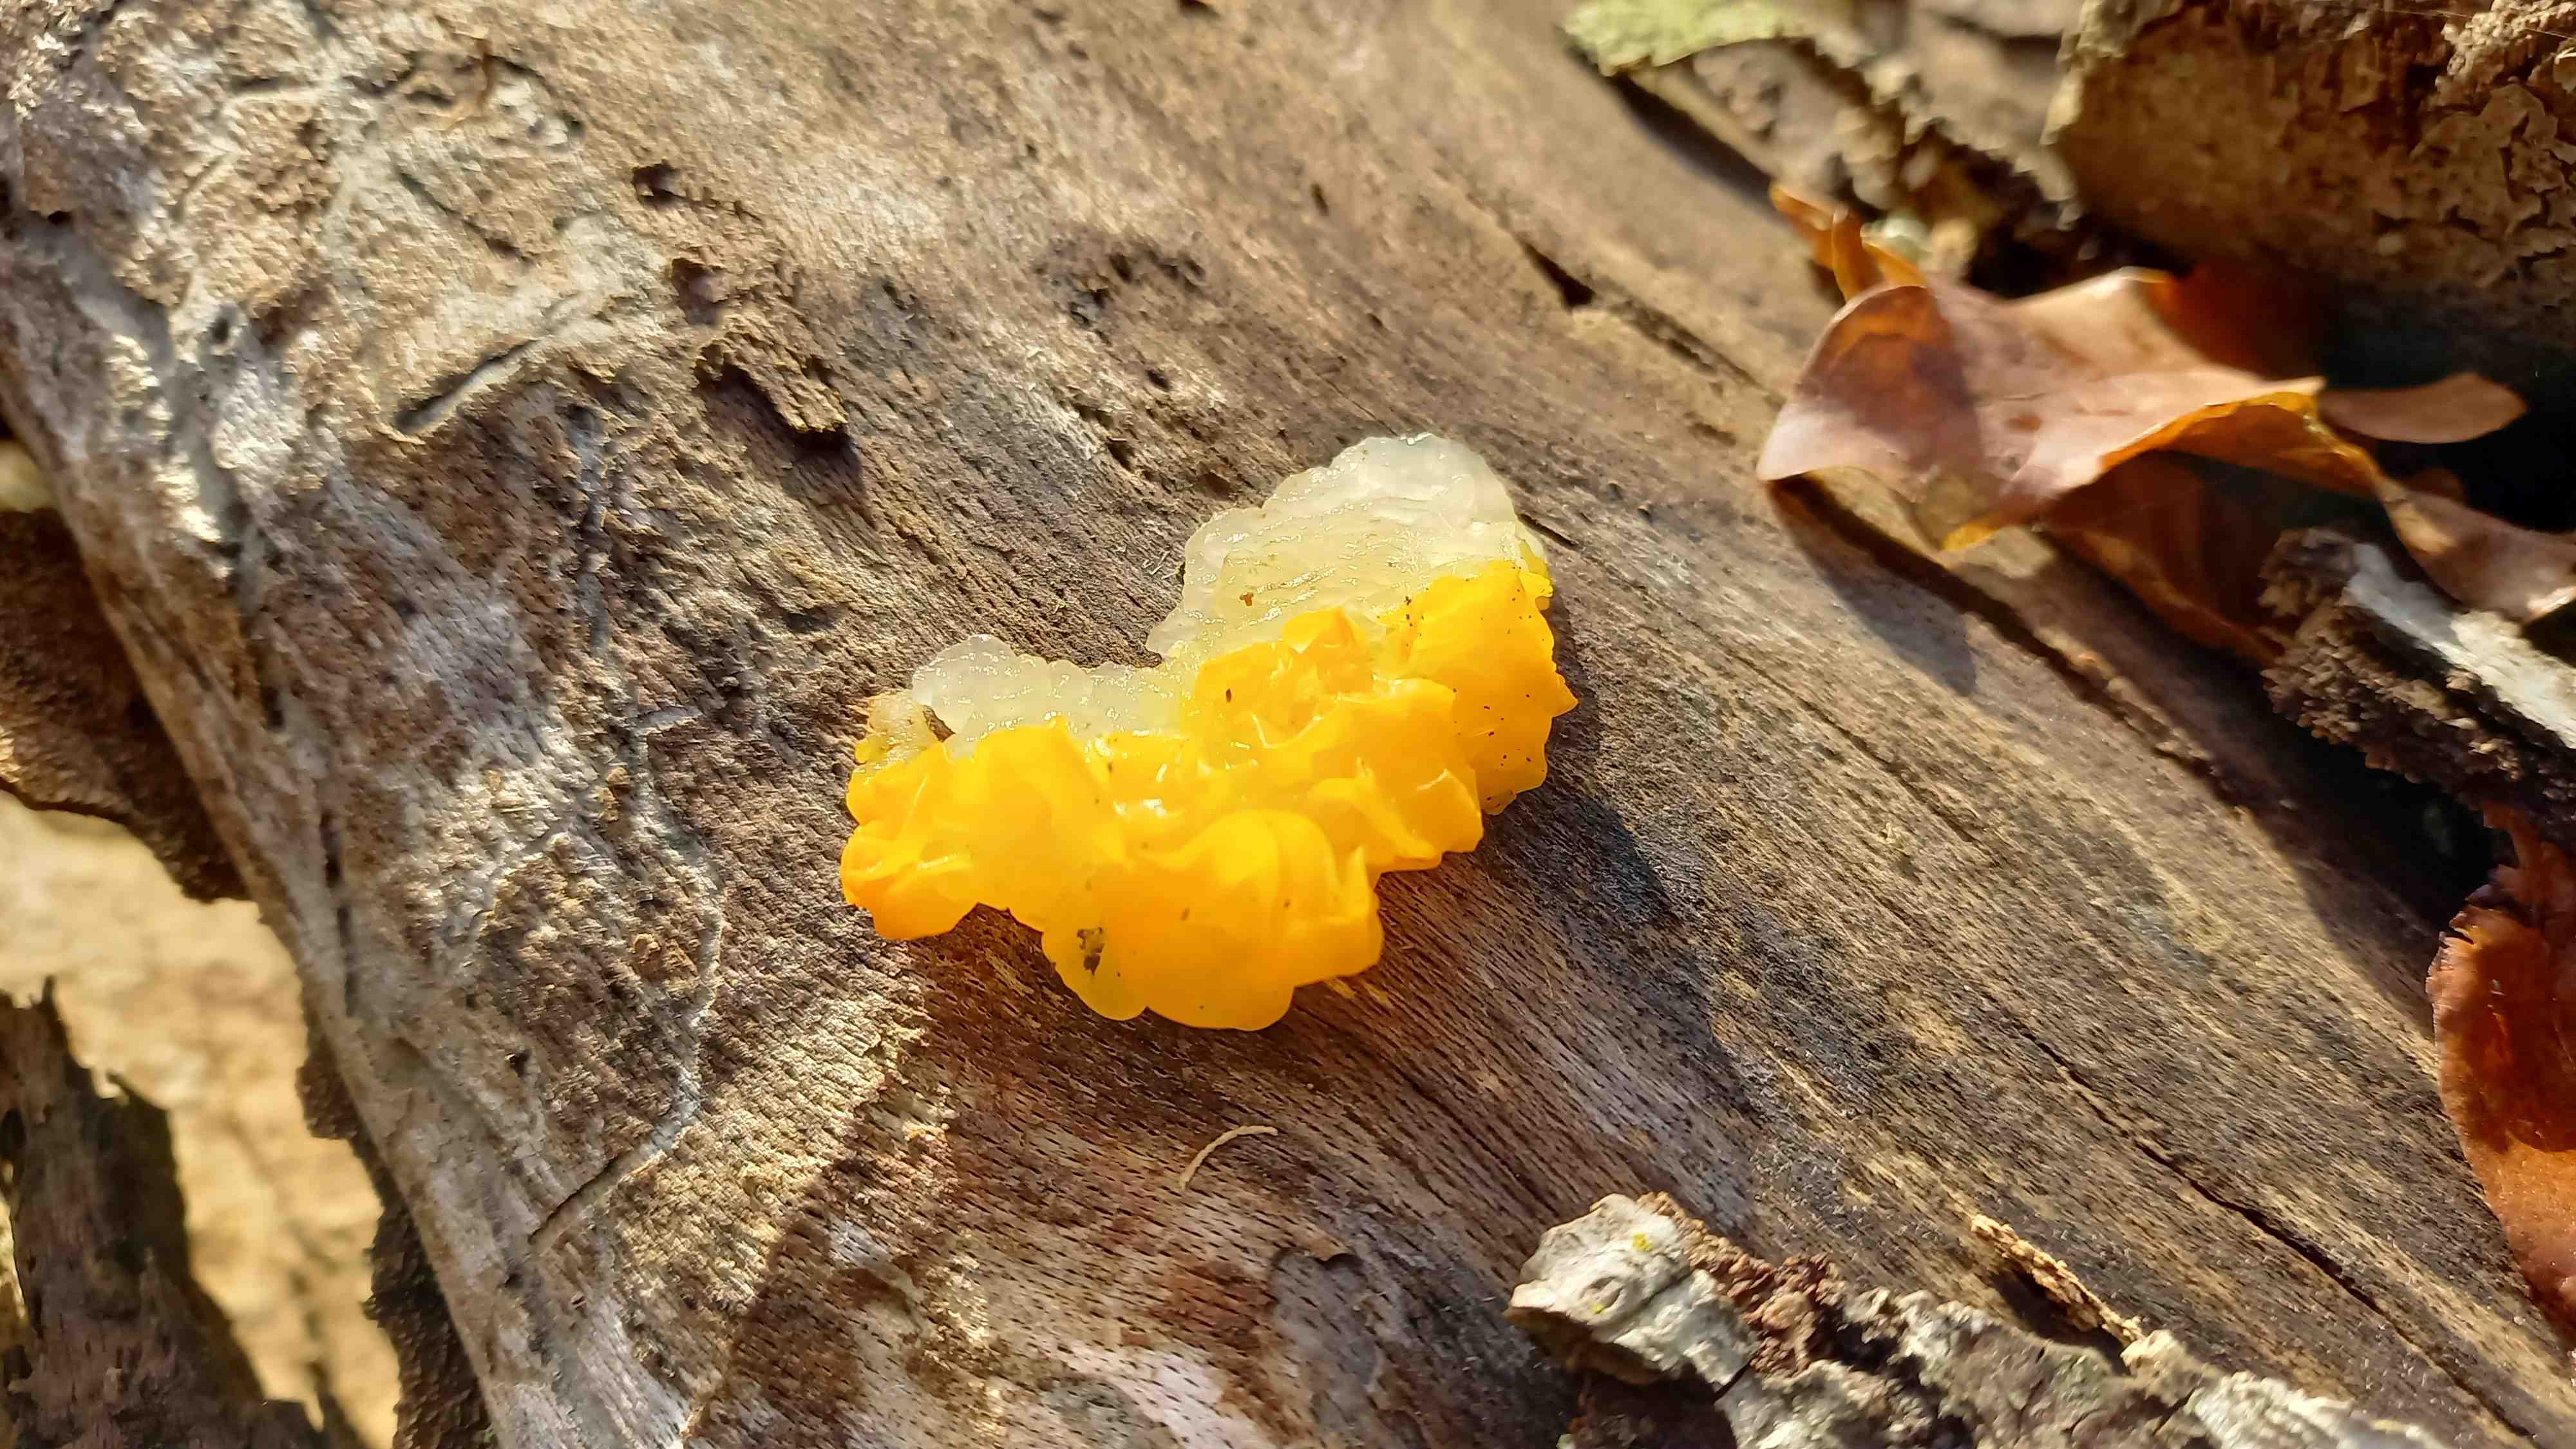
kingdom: Fungi
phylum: Basidiomycota
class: Tremellomycetes
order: Tremellales
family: Tremellaceae
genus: Tremella
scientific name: Tremella mesenterica
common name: gul bævresvamp
